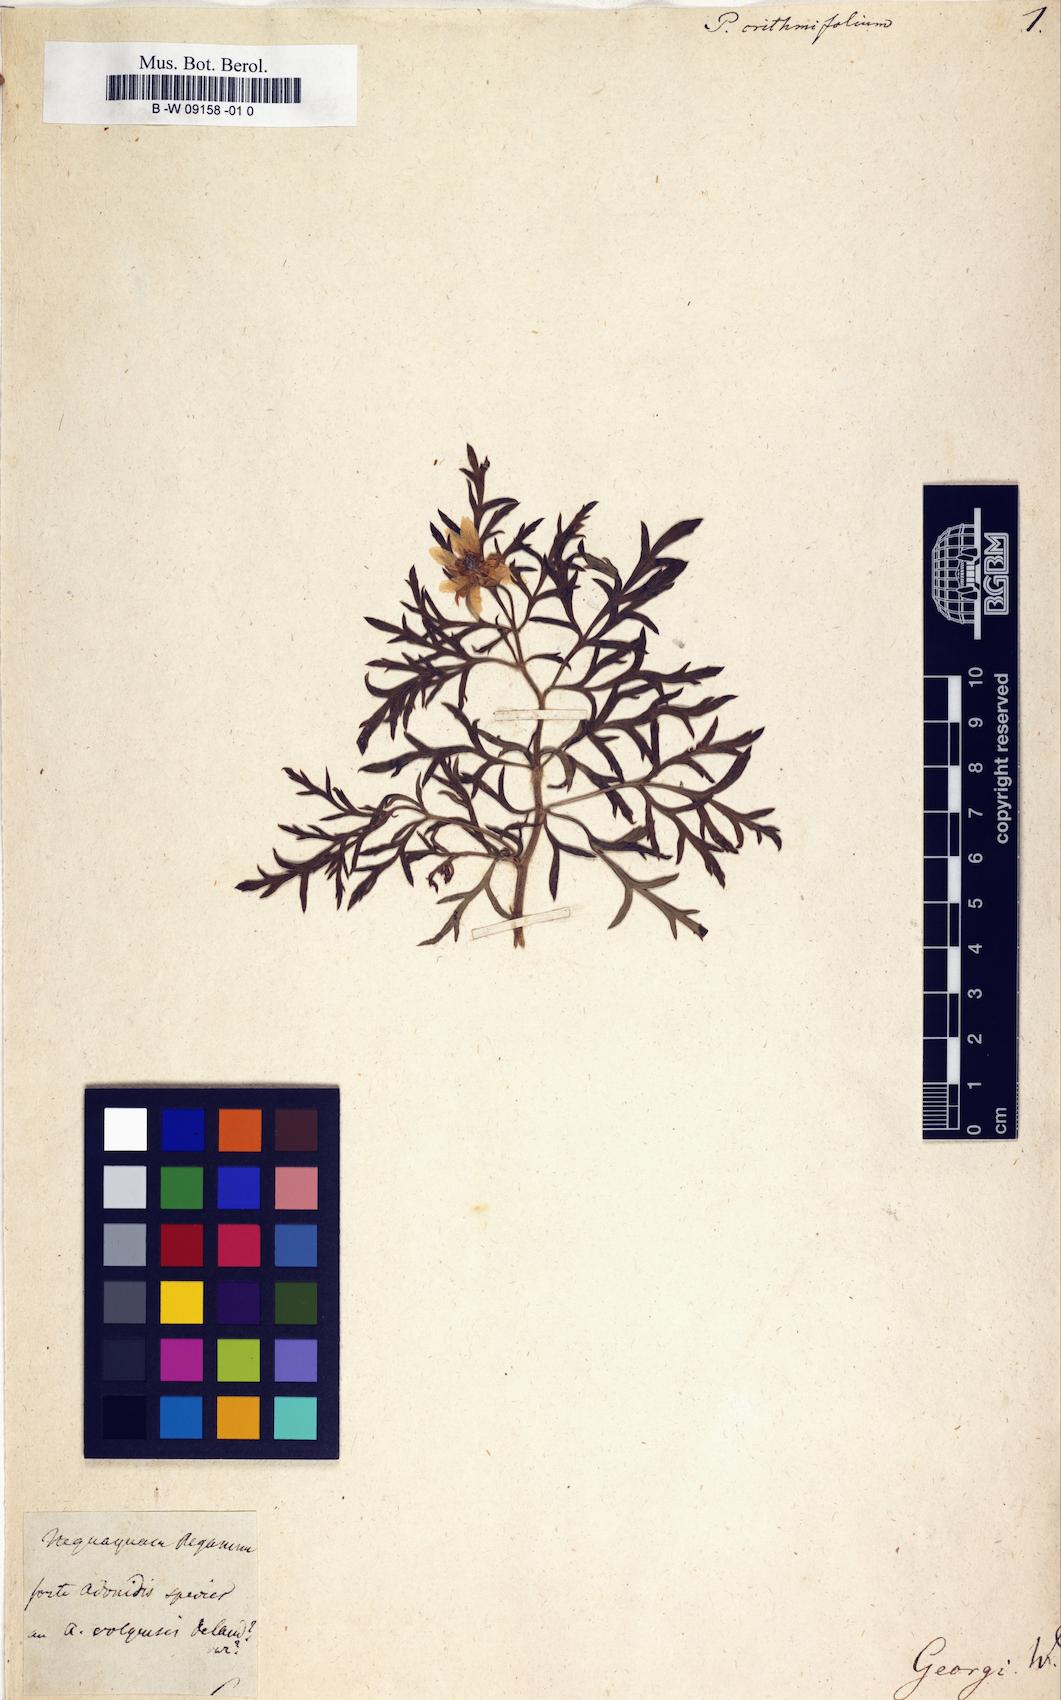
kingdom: Plantae
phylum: Tracheophyta
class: Magnoliopsida
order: Sapindales
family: Tetradiclidaceae
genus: Peganum
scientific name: Peganum crithmifolium
